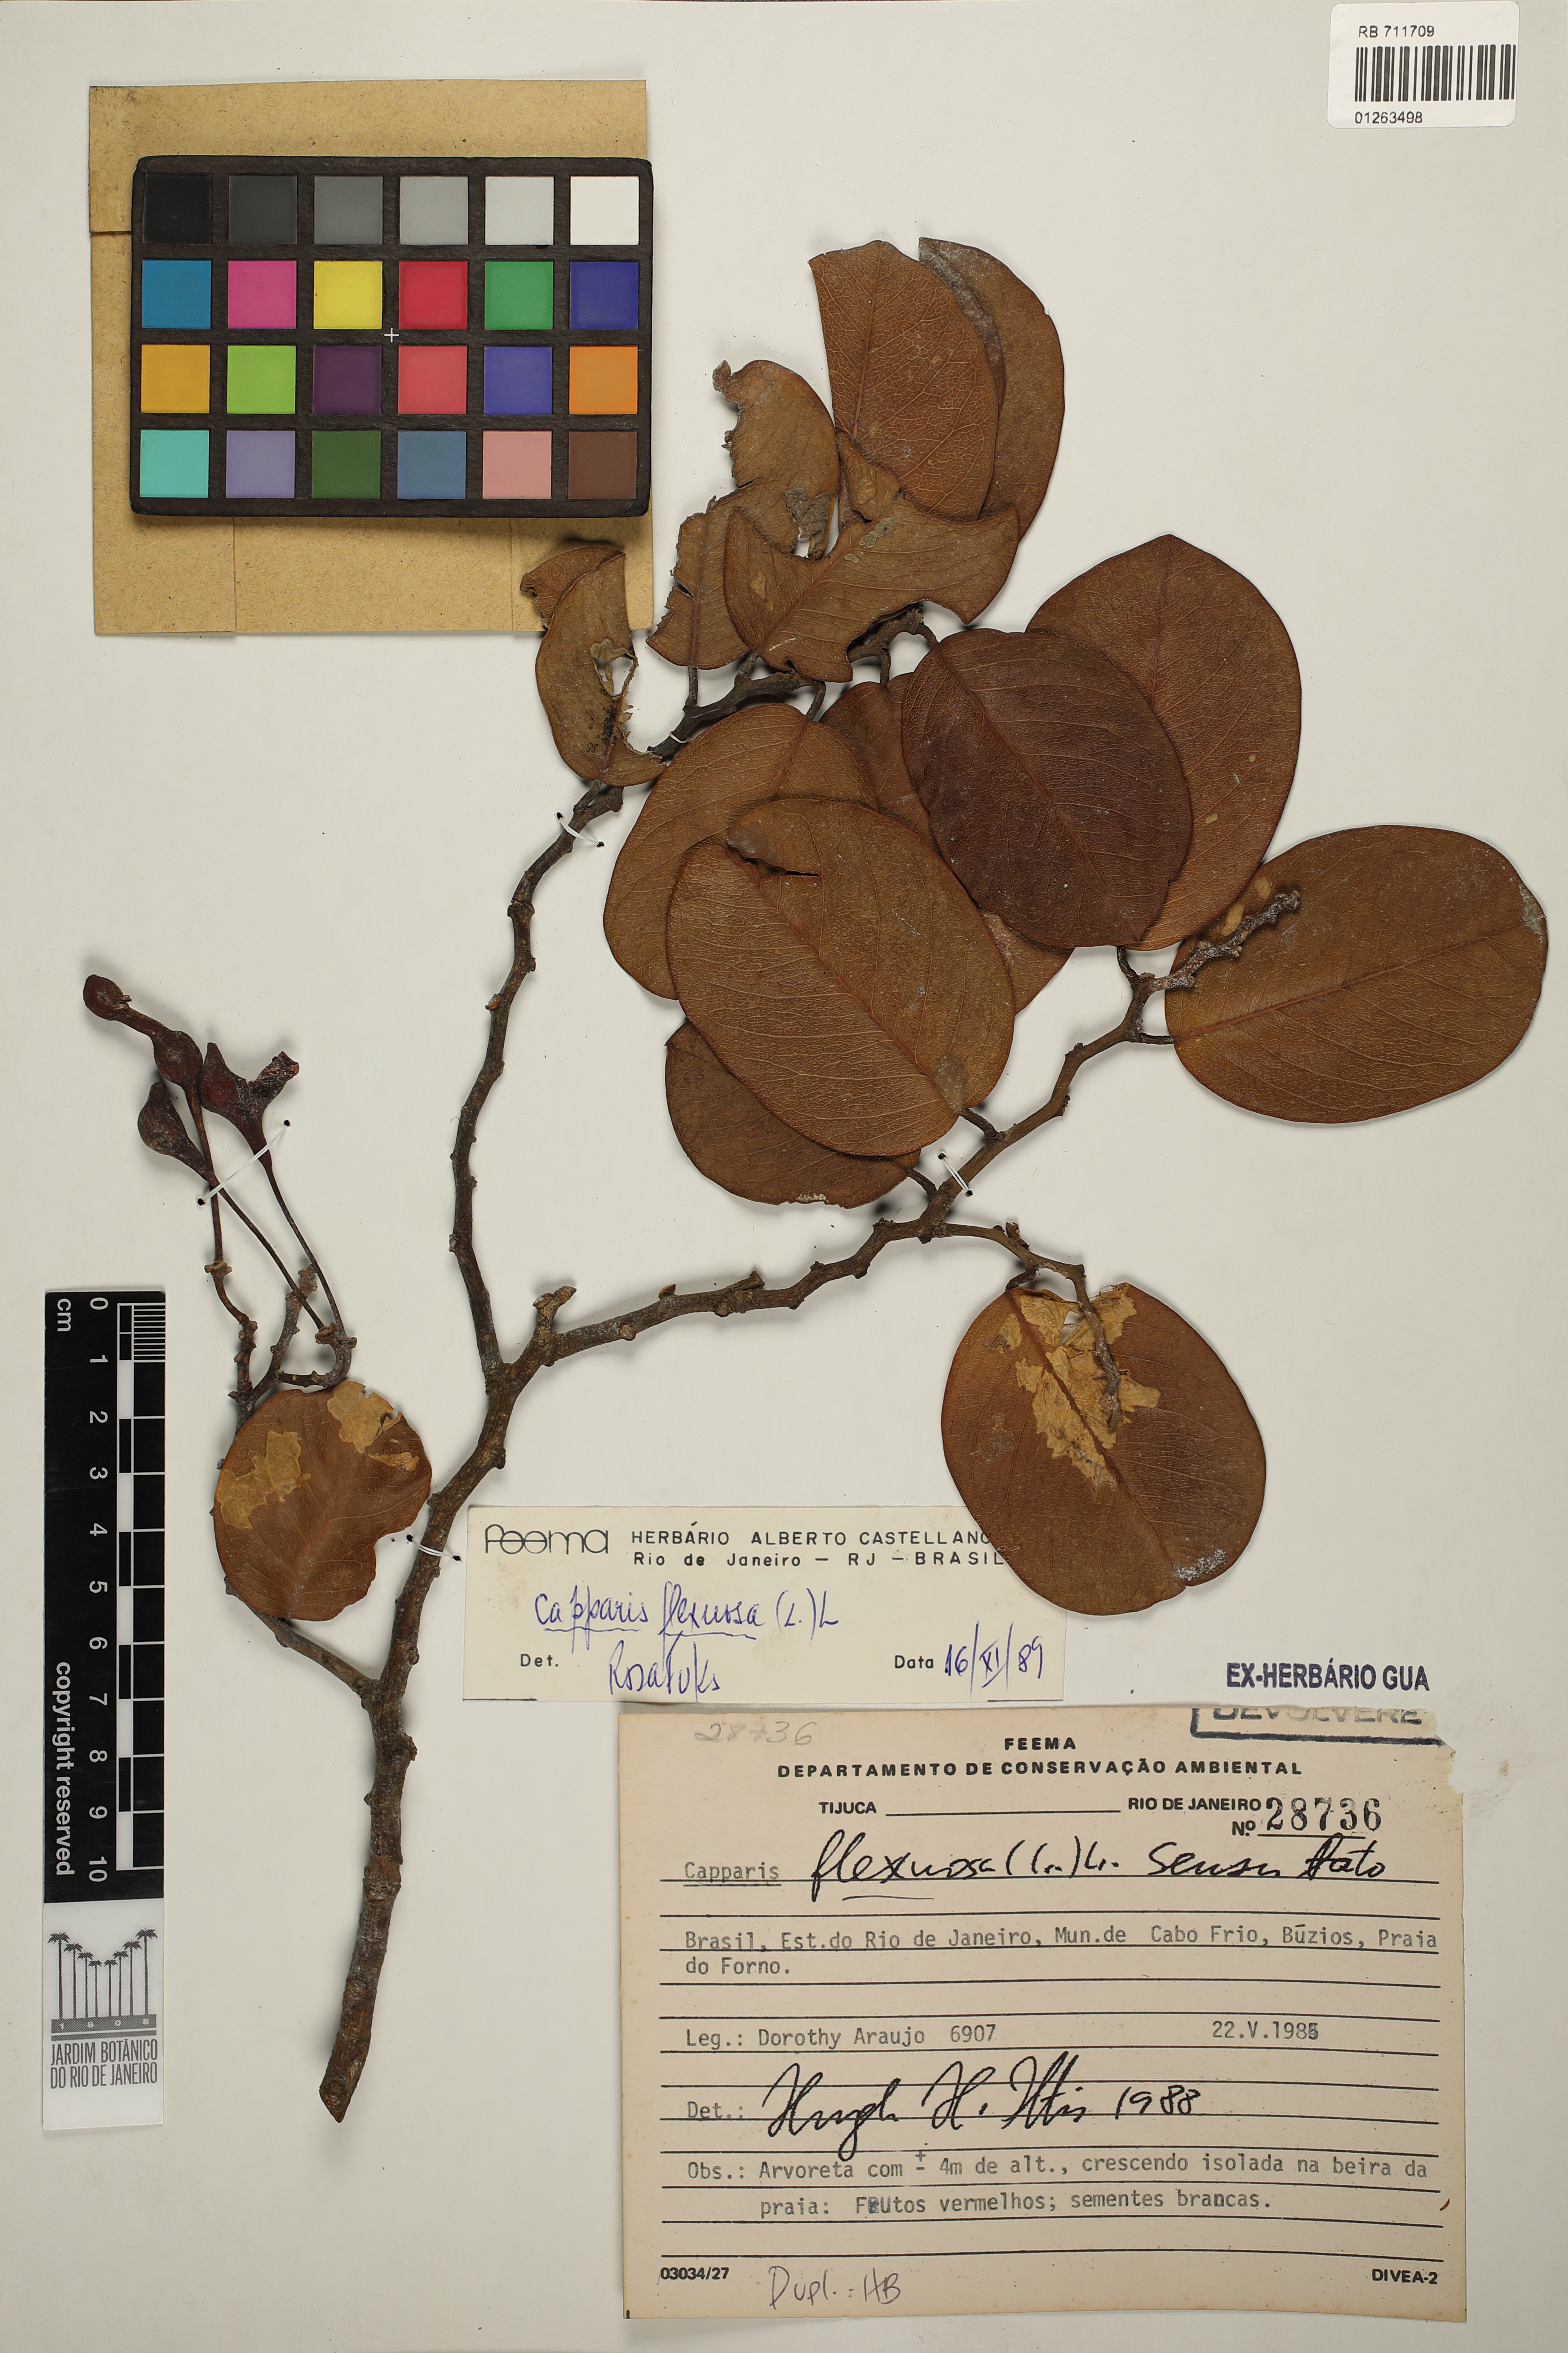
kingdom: Plantae
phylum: Tracheophyta
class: Magnoliopsida
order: Brassicales
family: Capparaceae
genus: Cynophalla
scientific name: Cynophalla flexuosa
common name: Capertree
